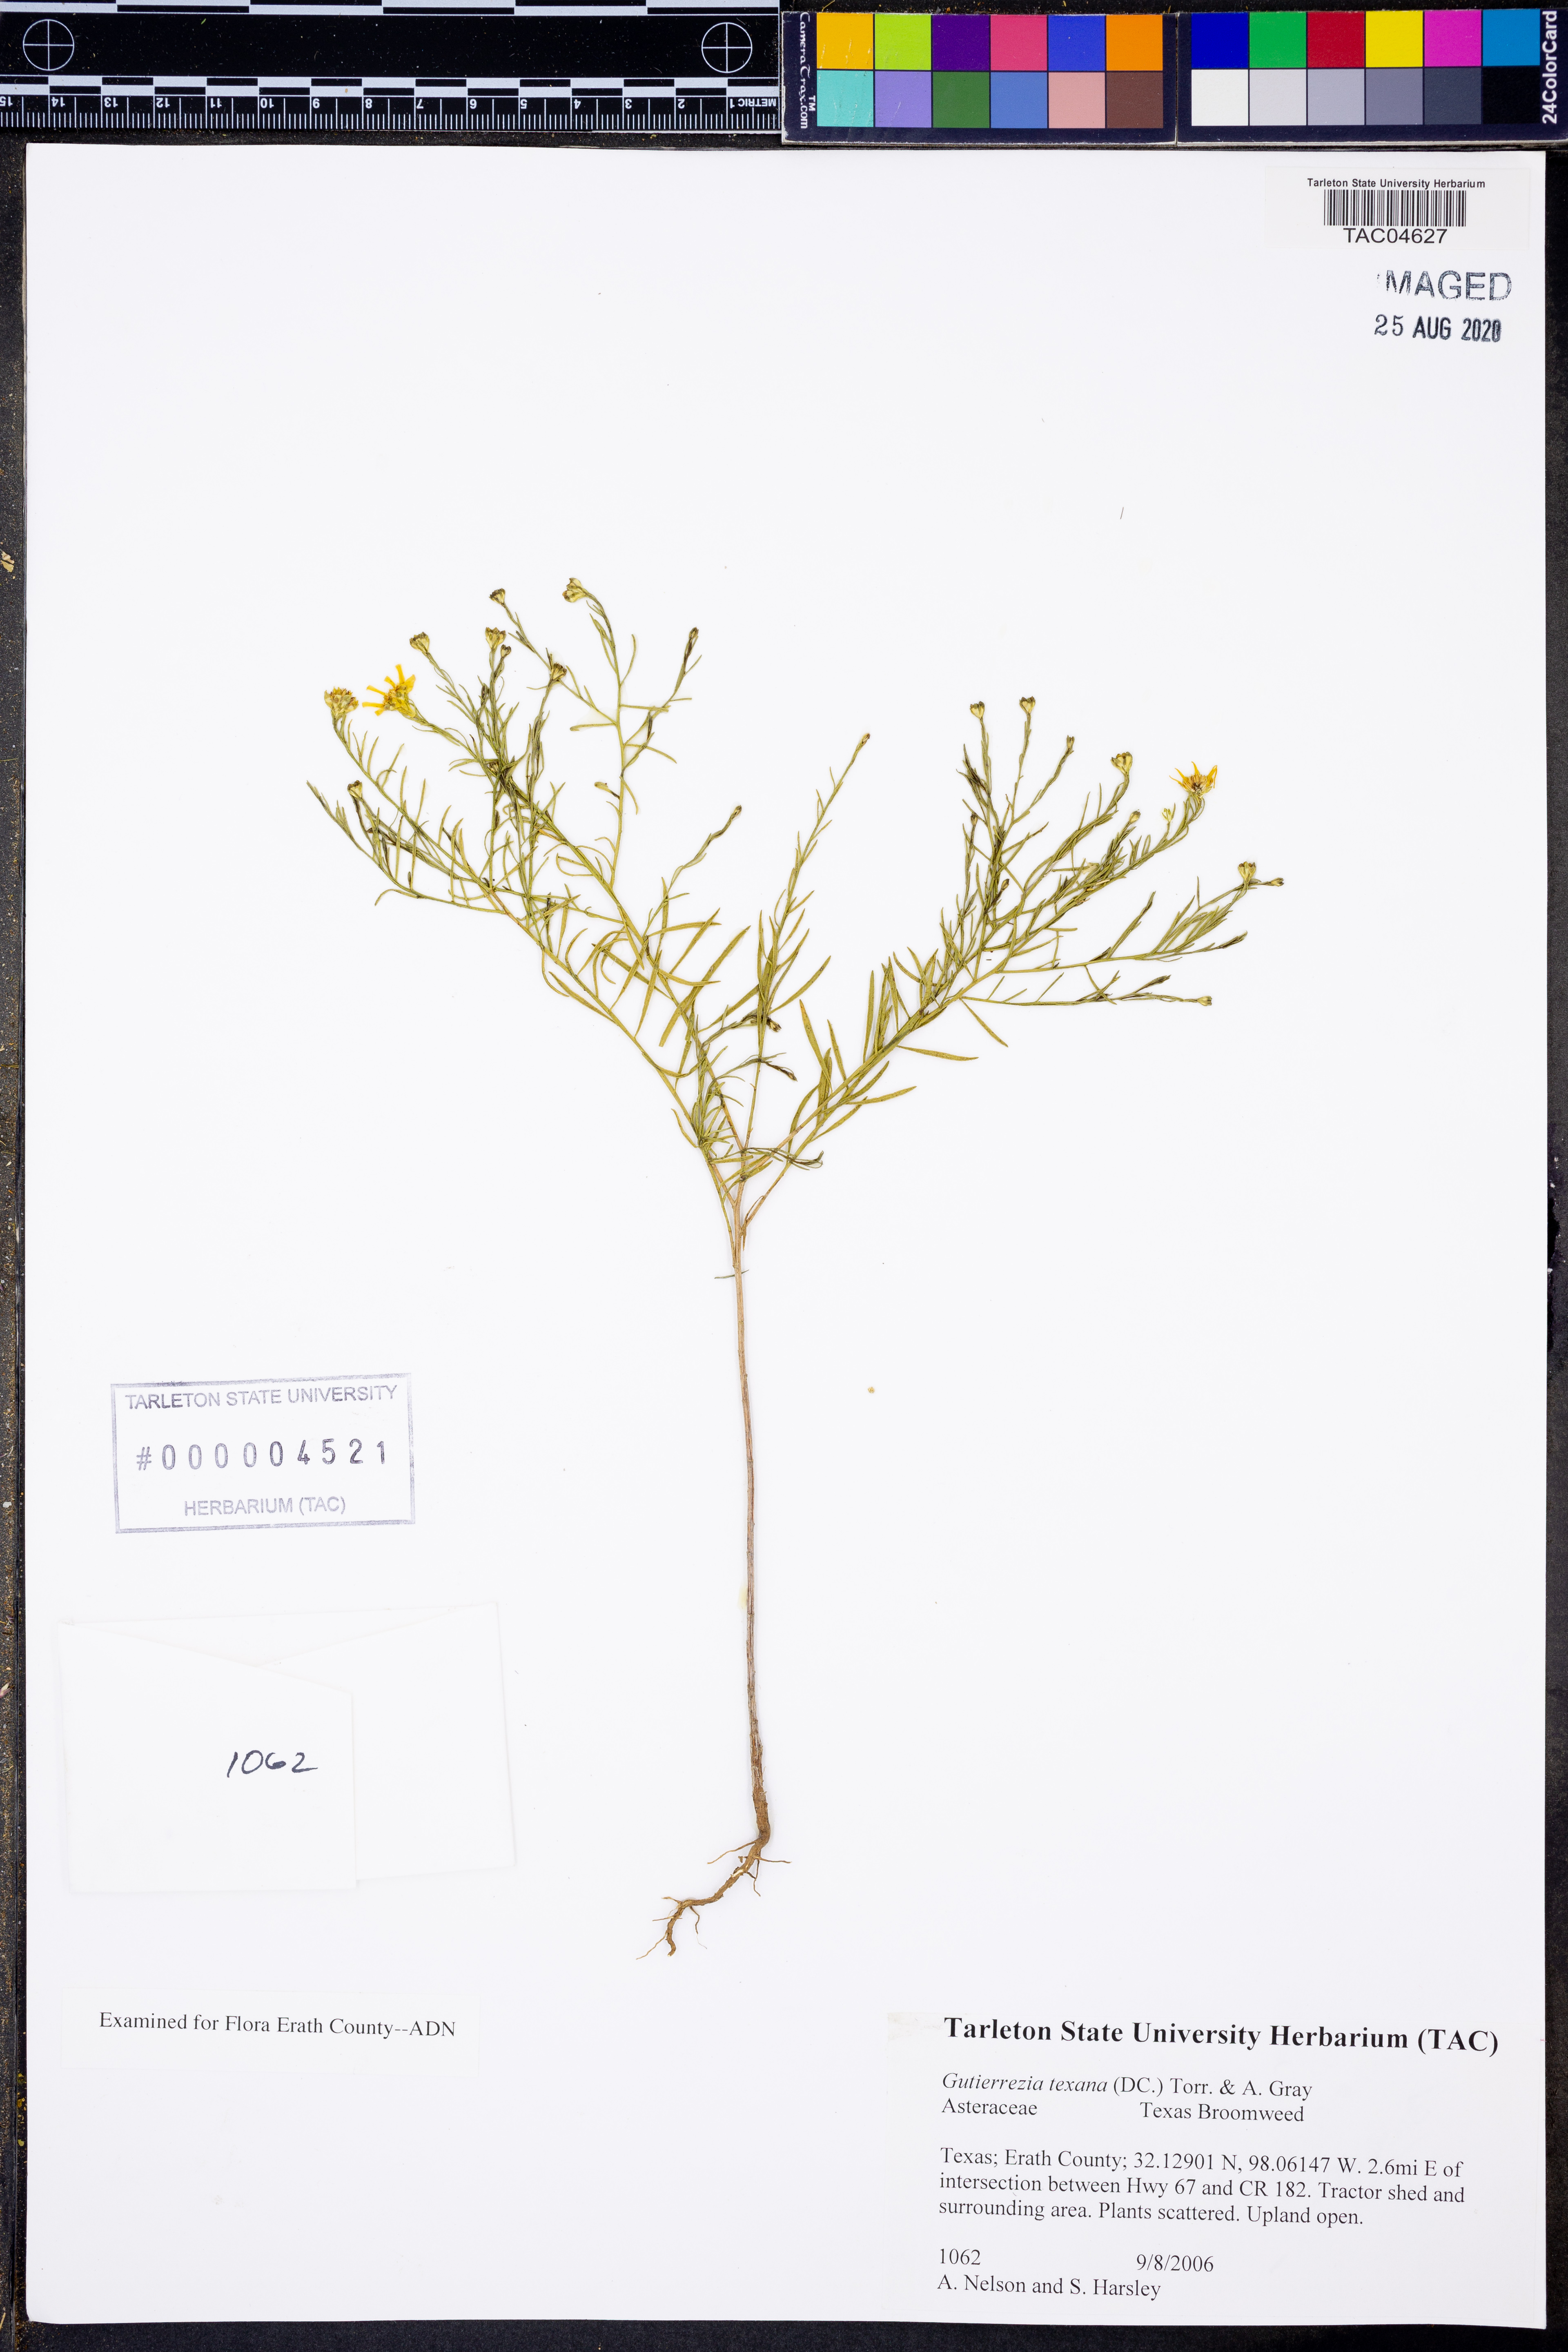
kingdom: Plantae
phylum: Tracheophyta
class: Magnoliopsida
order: Asterales
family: Asteraceae
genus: Gutierrezia
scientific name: Gutierrezia texana
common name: Texas snakeweed
